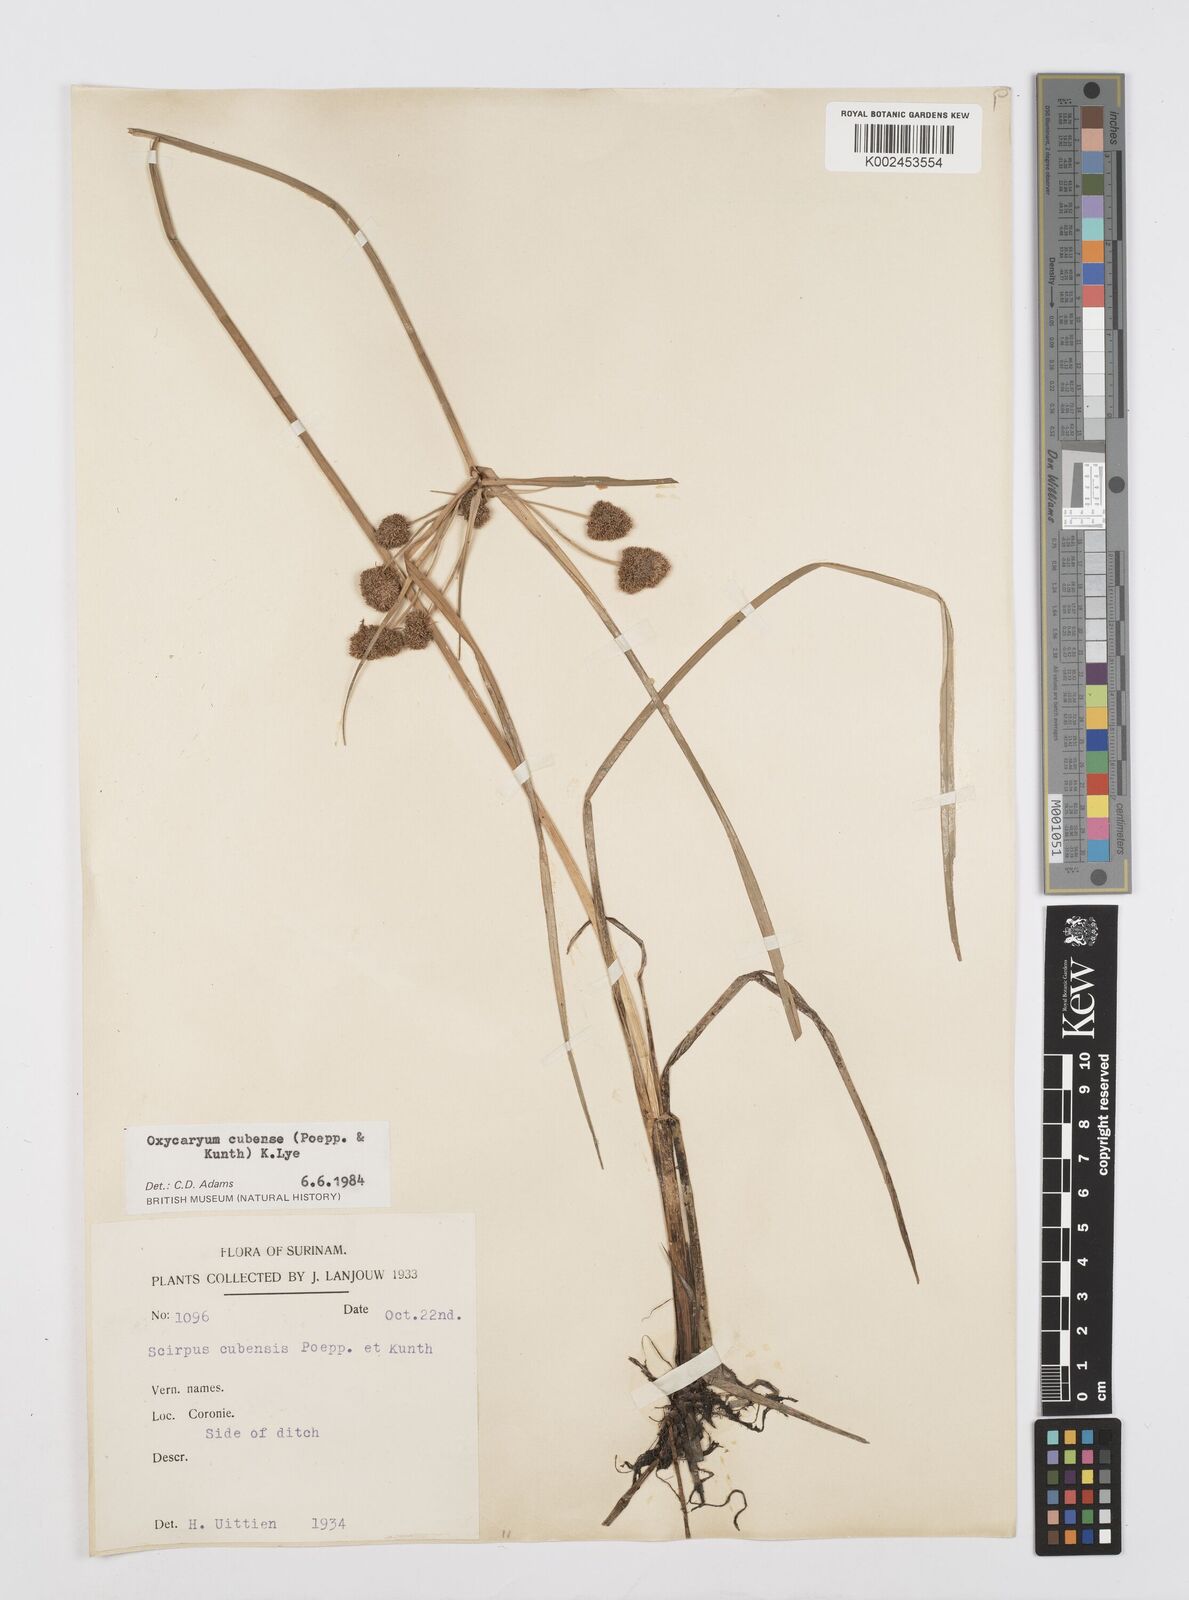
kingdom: Plantae
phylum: Tracheophyta
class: Liliopsida
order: Poales
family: Cyperaceae
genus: Cyperus
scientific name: Cyperus elegans
